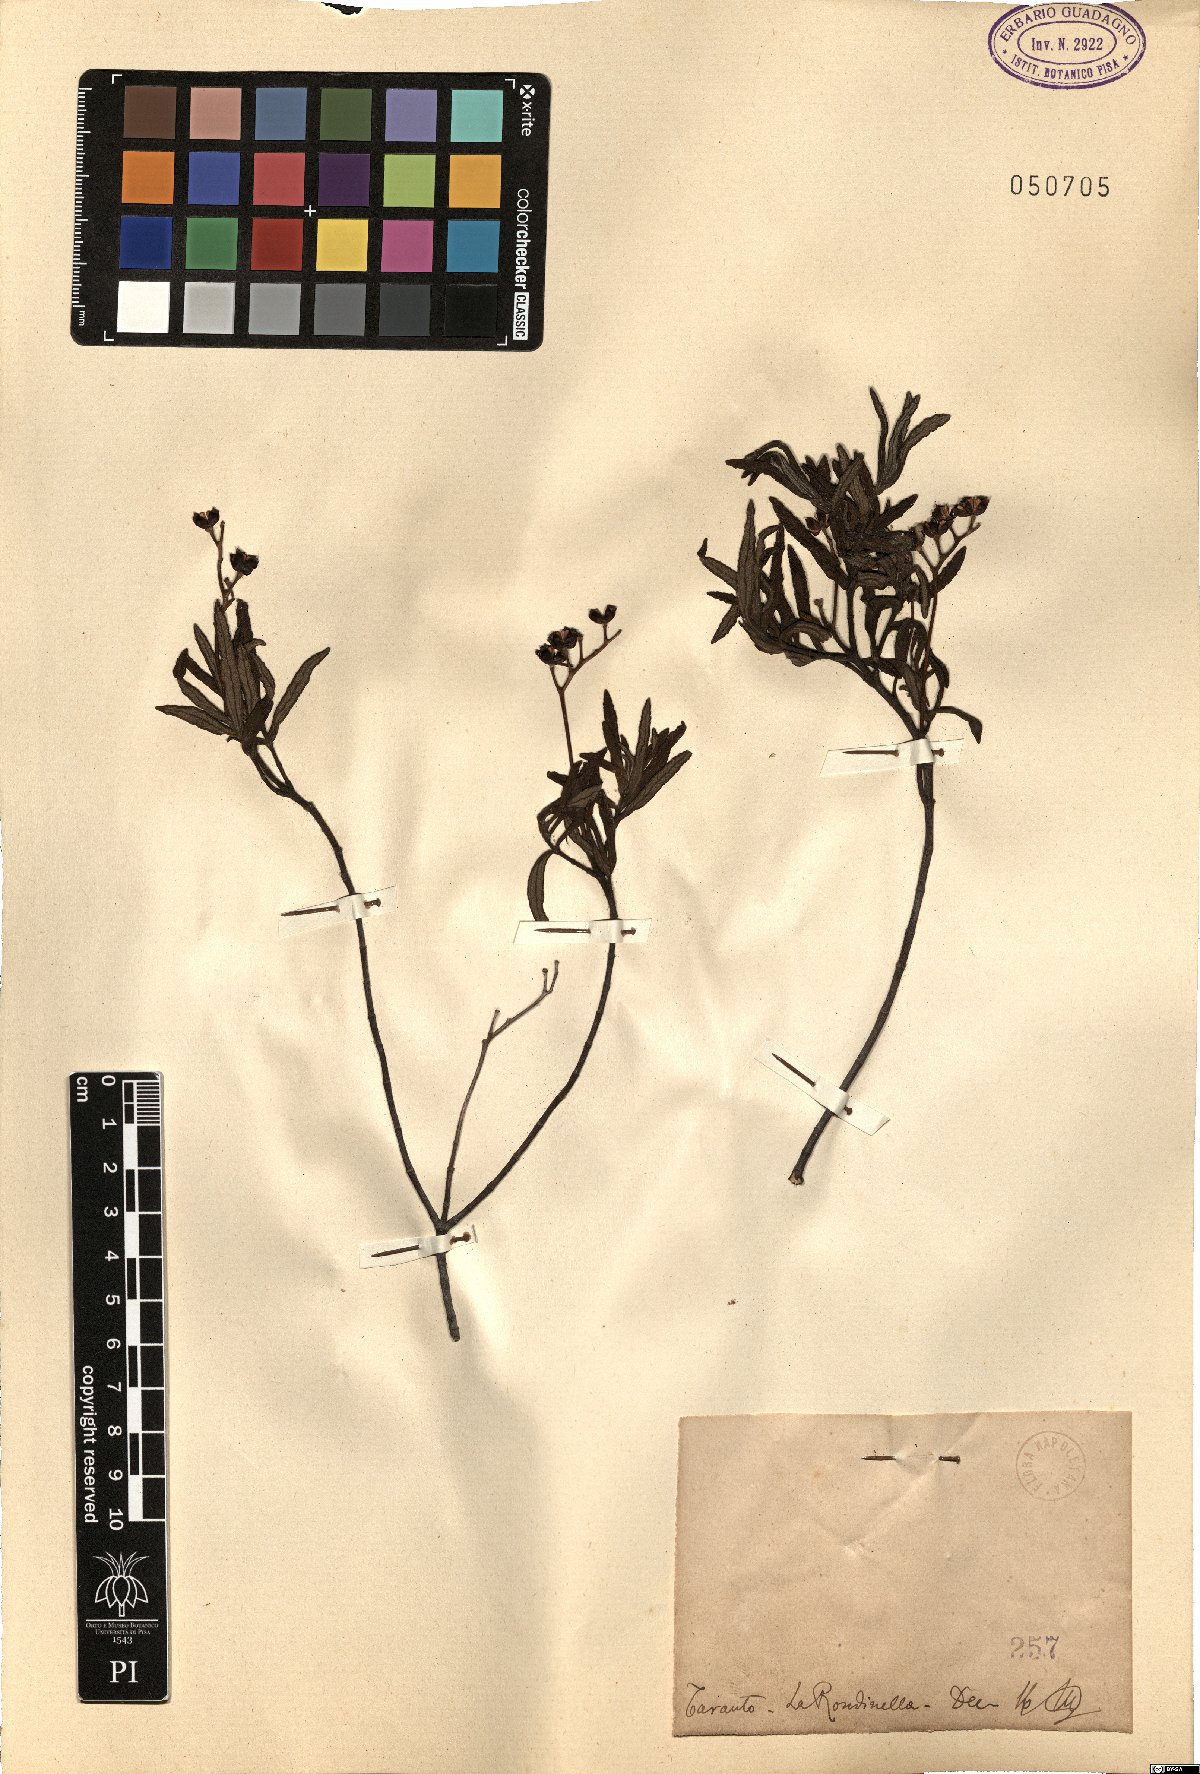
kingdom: Plantae
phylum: Tracheophyta
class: Magnoliopsida
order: Malvales
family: Cistaceae
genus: Cistus
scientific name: Cistus
